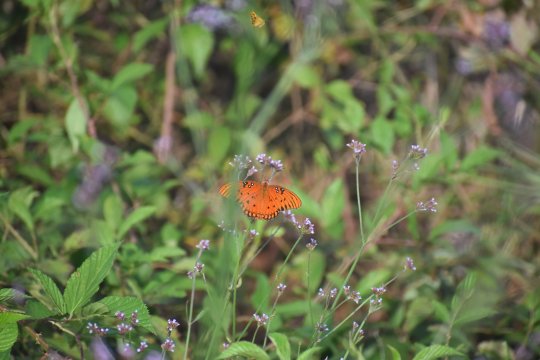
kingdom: Animalia
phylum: Arthropoda
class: Insecta
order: Lepidoptera
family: Nymphalidae
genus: Dione
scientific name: Dione vanillae
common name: Gulf Fritillary
